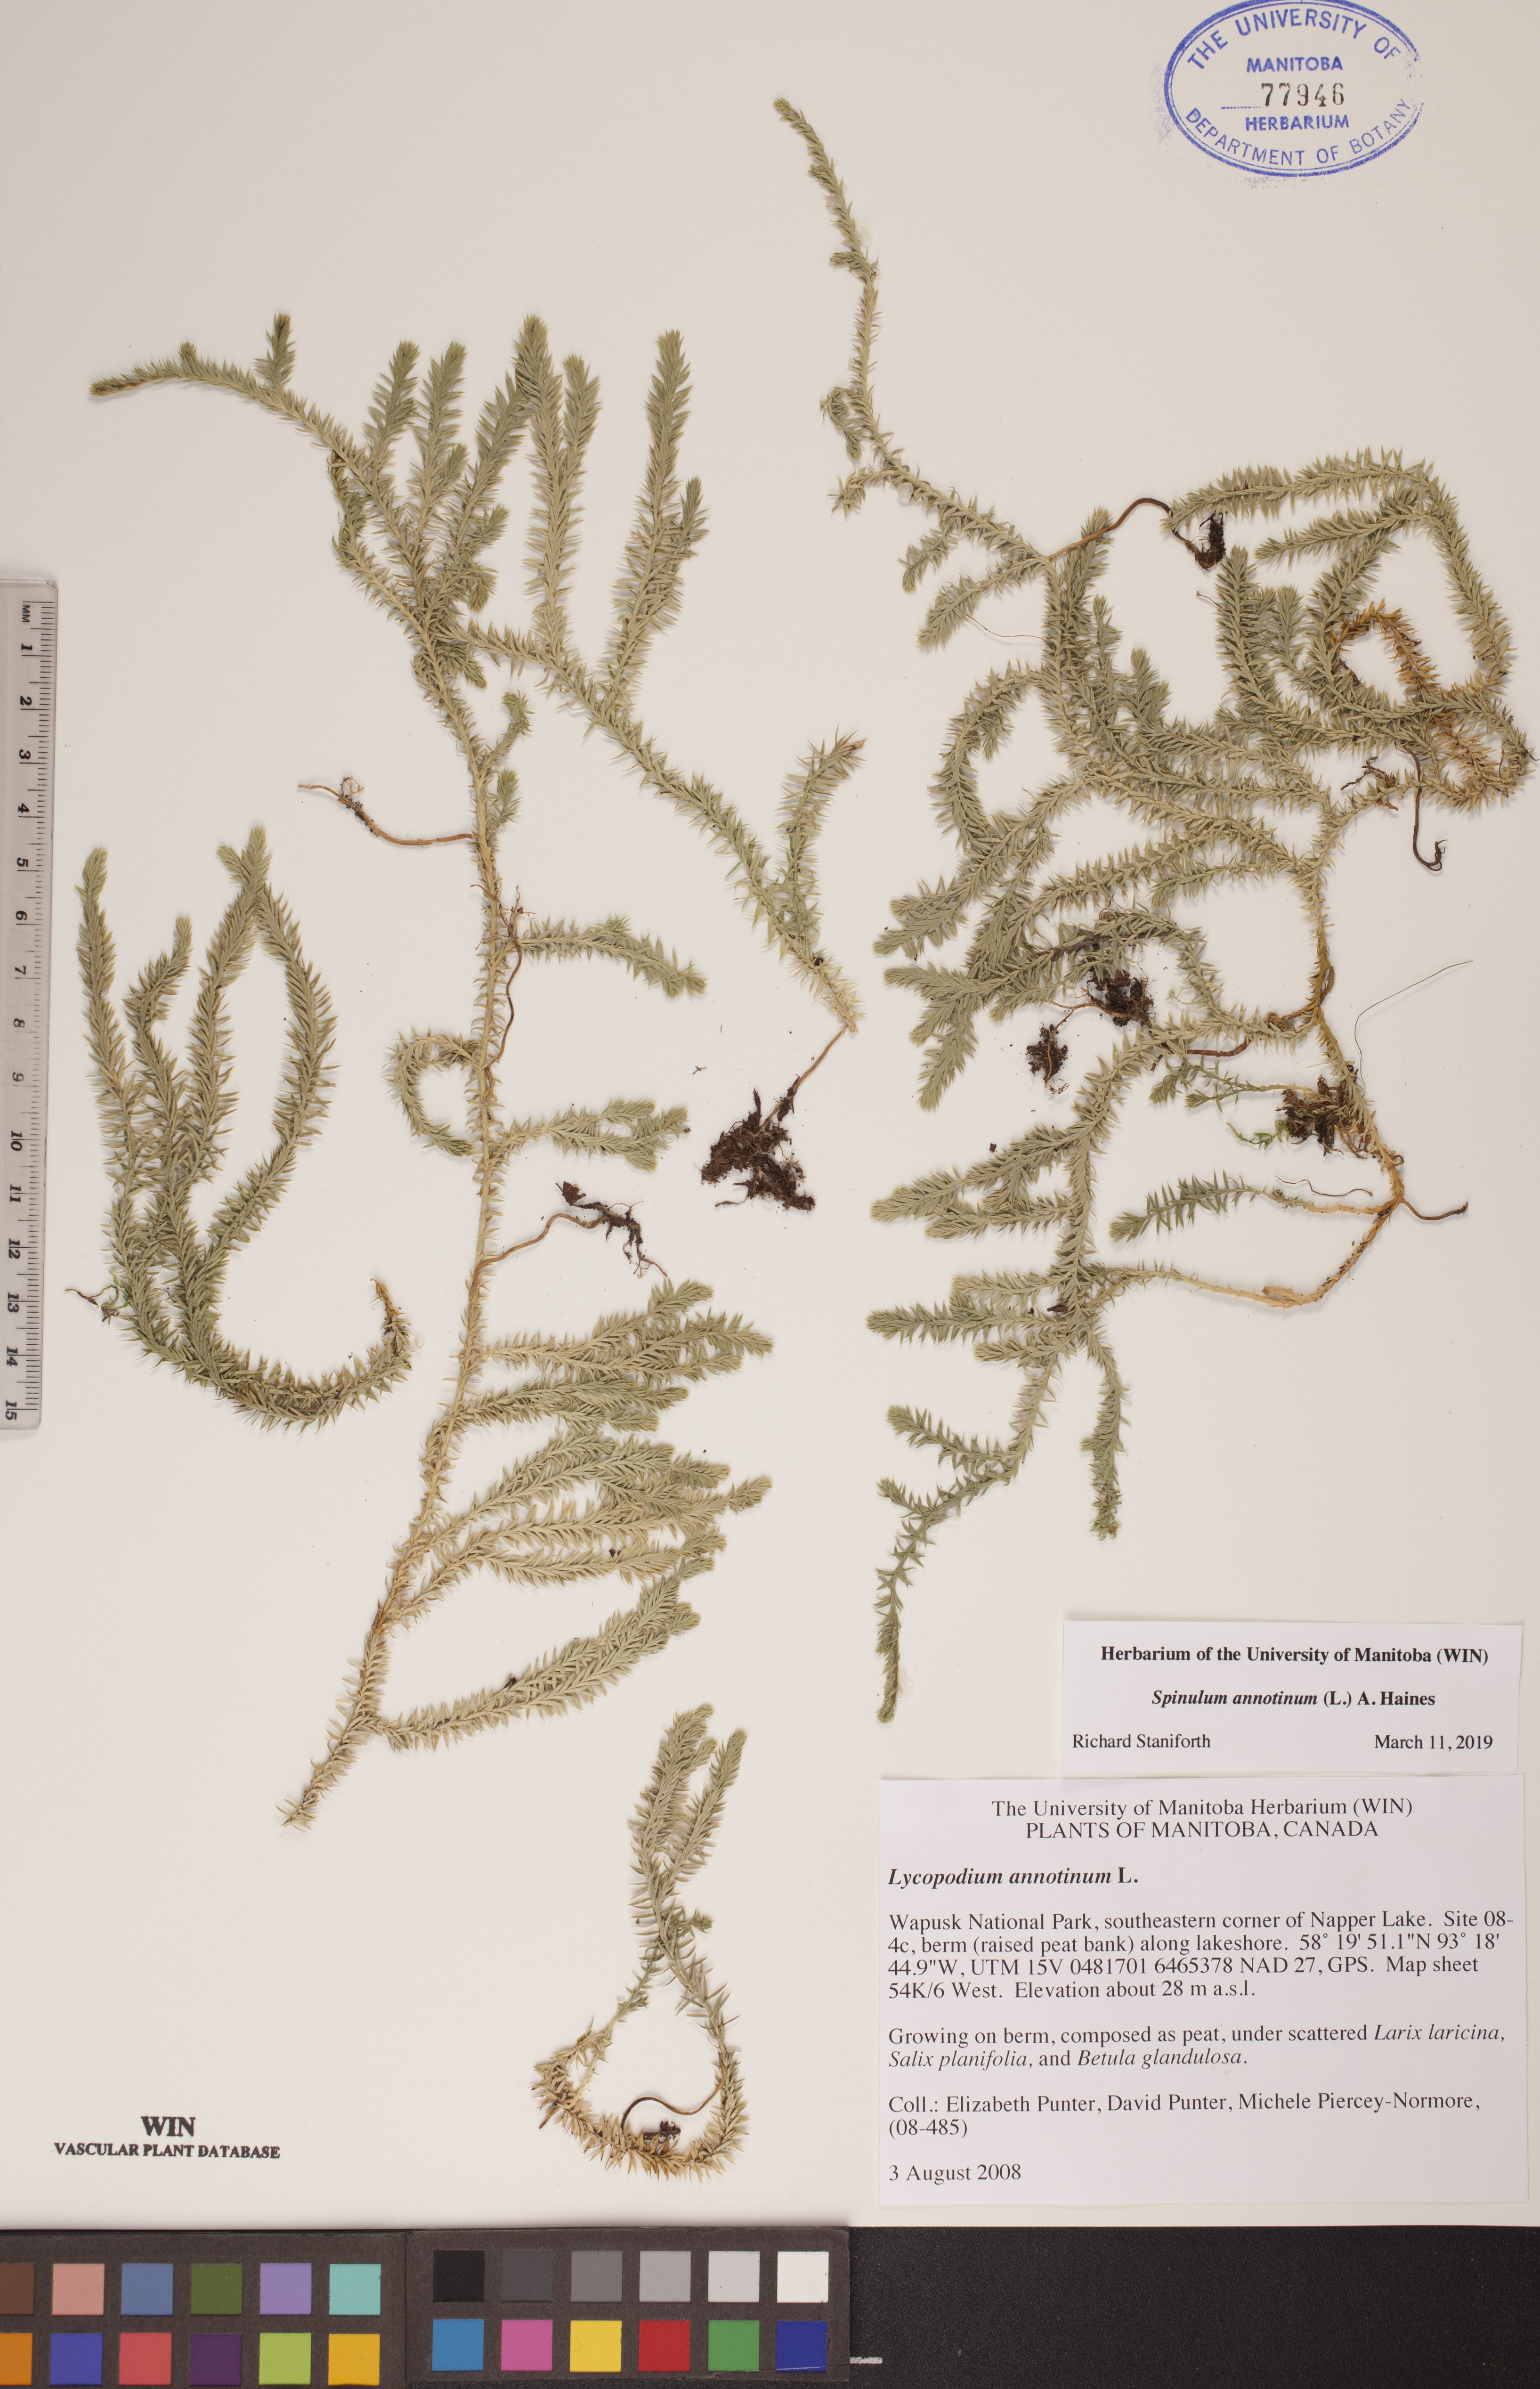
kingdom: Plantae
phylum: Tracheophyta
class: Lycopodiopsida
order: Lycopodiales
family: Lycopodiaceae
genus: Spinulum
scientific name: Spinulum annotinum
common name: Interrupted club-moss
